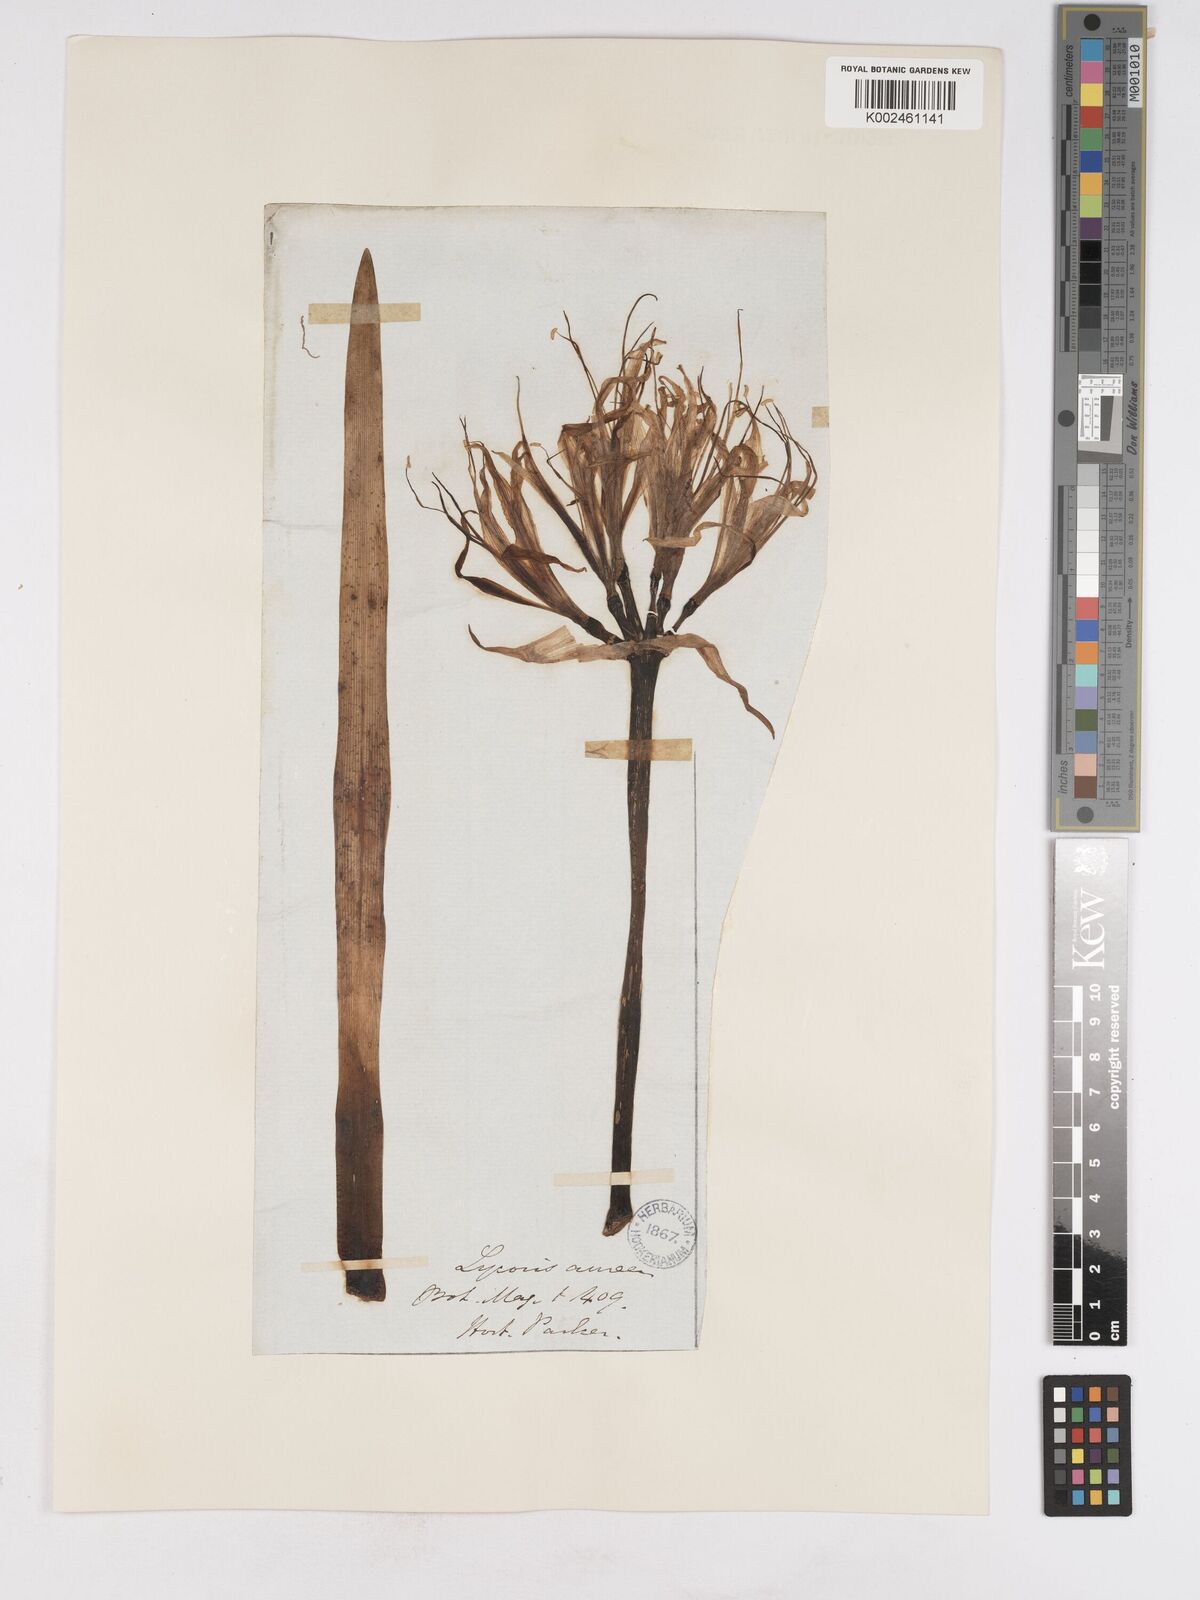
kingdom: Plantae
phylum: Tracheophyta
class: Liliopsida
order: Asparagales
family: Amaryllidaceae
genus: Lycoris
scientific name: Lycoris aurea
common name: Golden hurricane-lily
